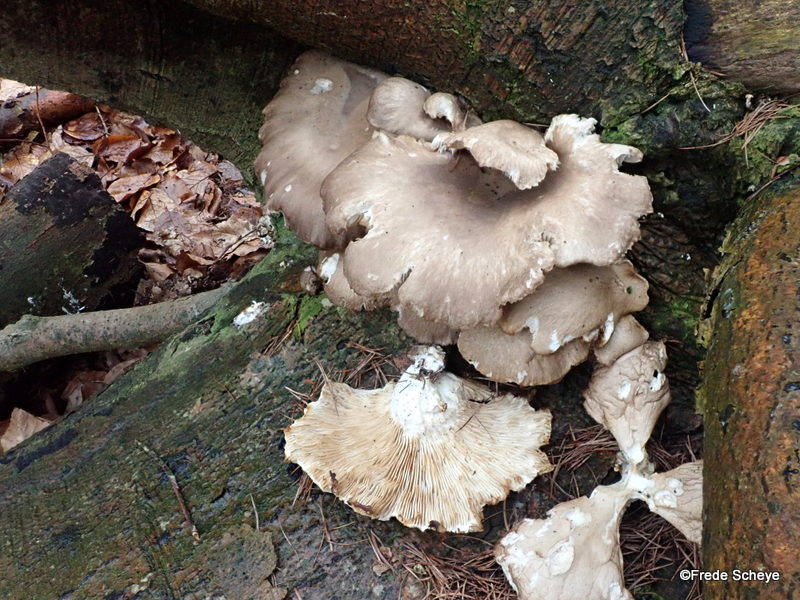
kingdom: Fungi
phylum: Basidiomycota
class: Agaricomycetes
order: Agaricales
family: Pleurotaceae
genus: Pleurotus
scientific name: Pleurotus ostreatus
